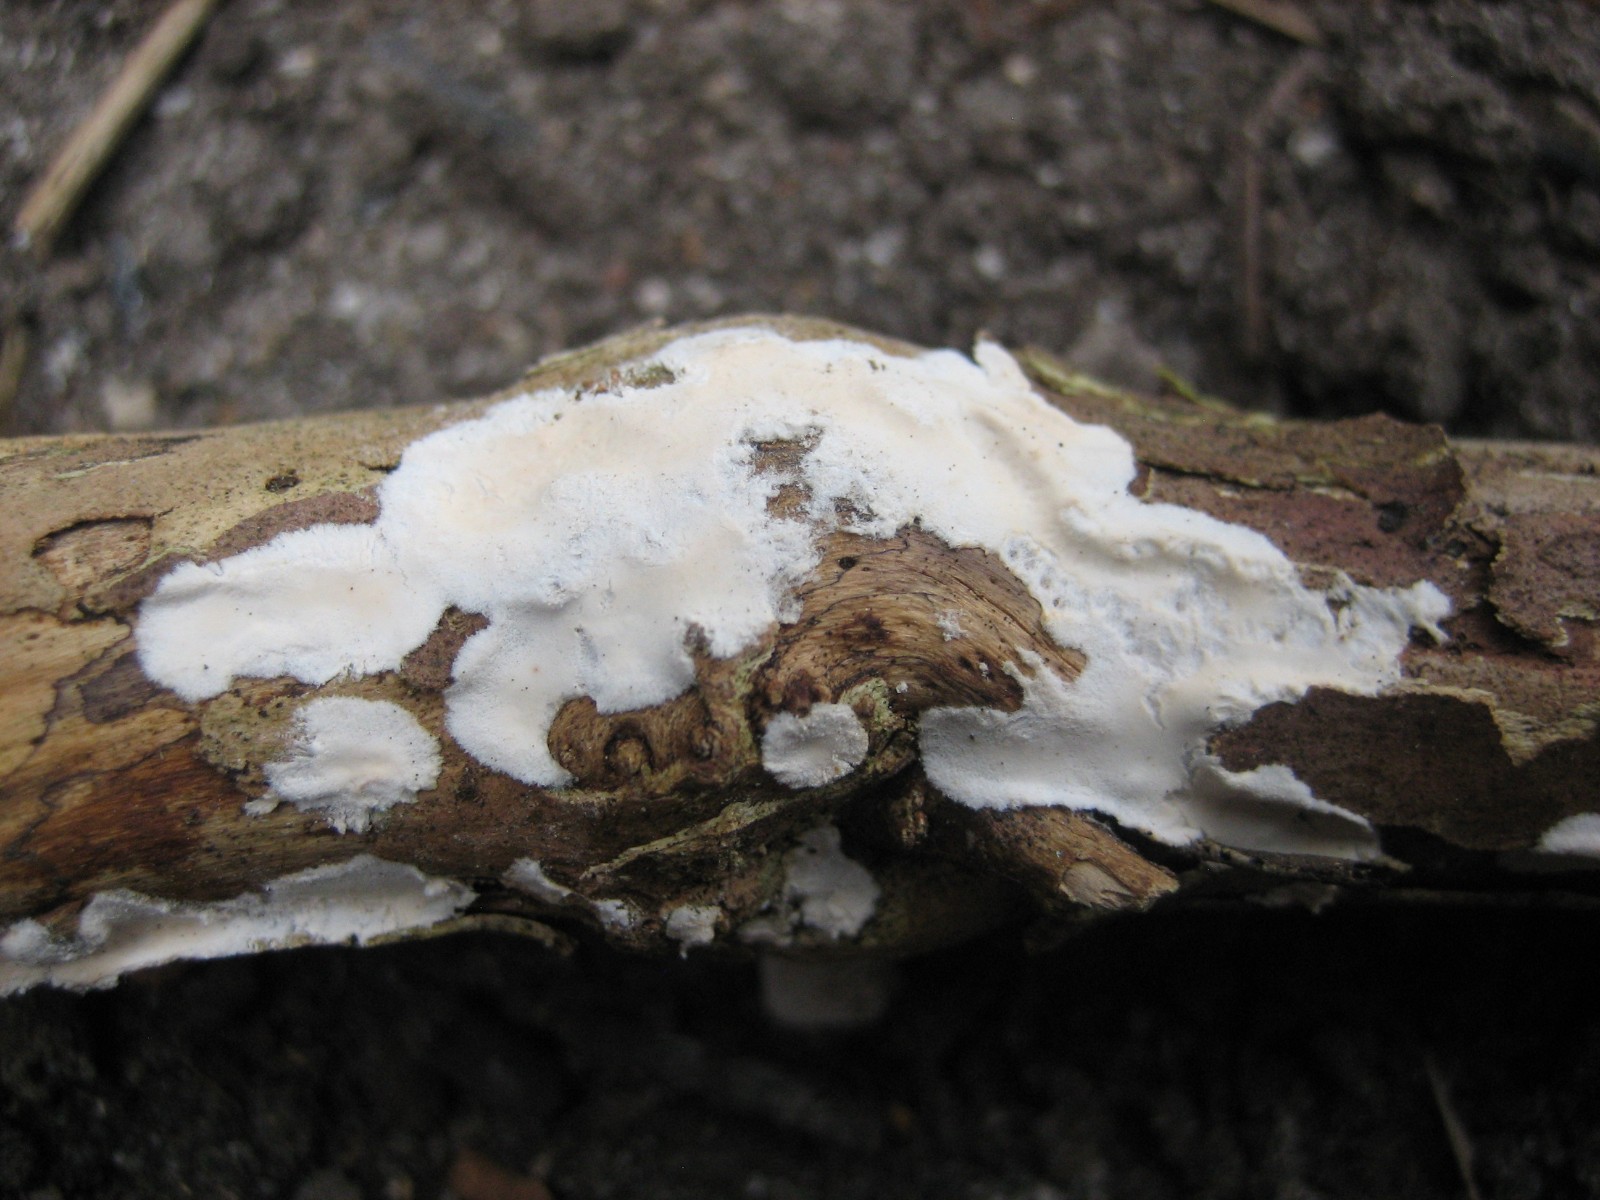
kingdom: Fungi
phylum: Basidiomycota
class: Agaricomycetes
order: Corticiales
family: Corticiaceae
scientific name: Corticiaceae
